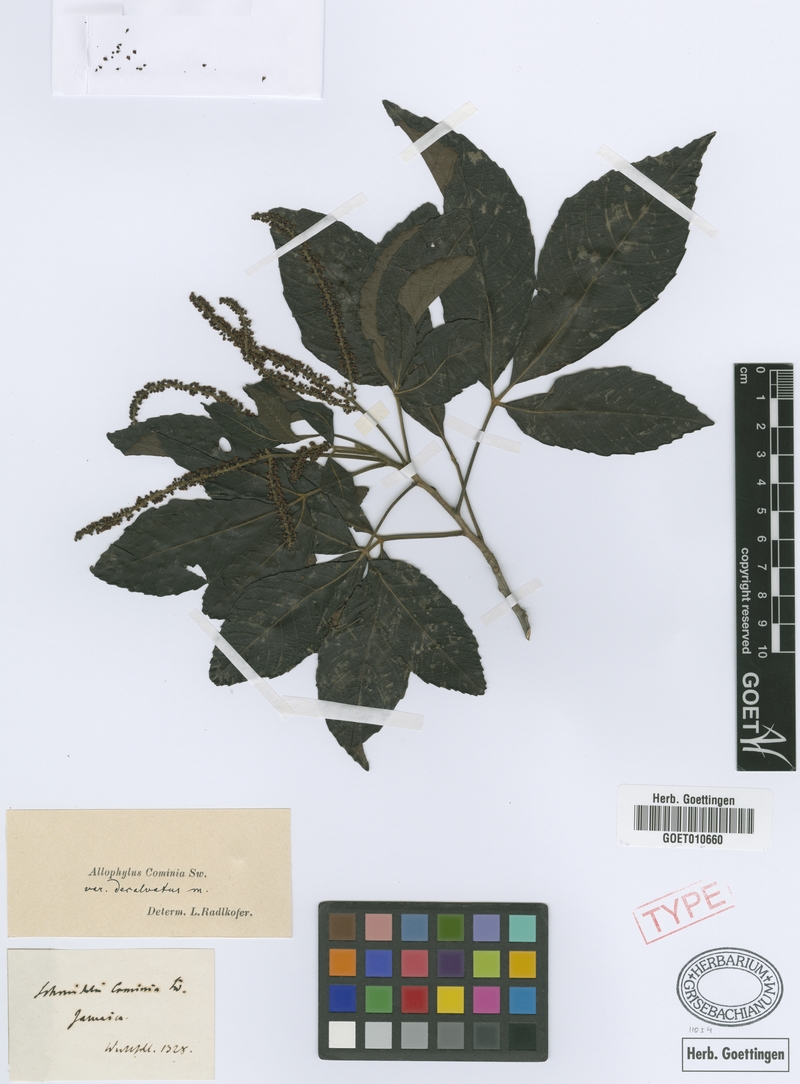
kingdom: Plantae
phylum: Tracheophyta
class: Magnoliopsida
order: Sapindales
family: Sapindaceae
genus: Allophylus
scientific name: Allophylus cominia
